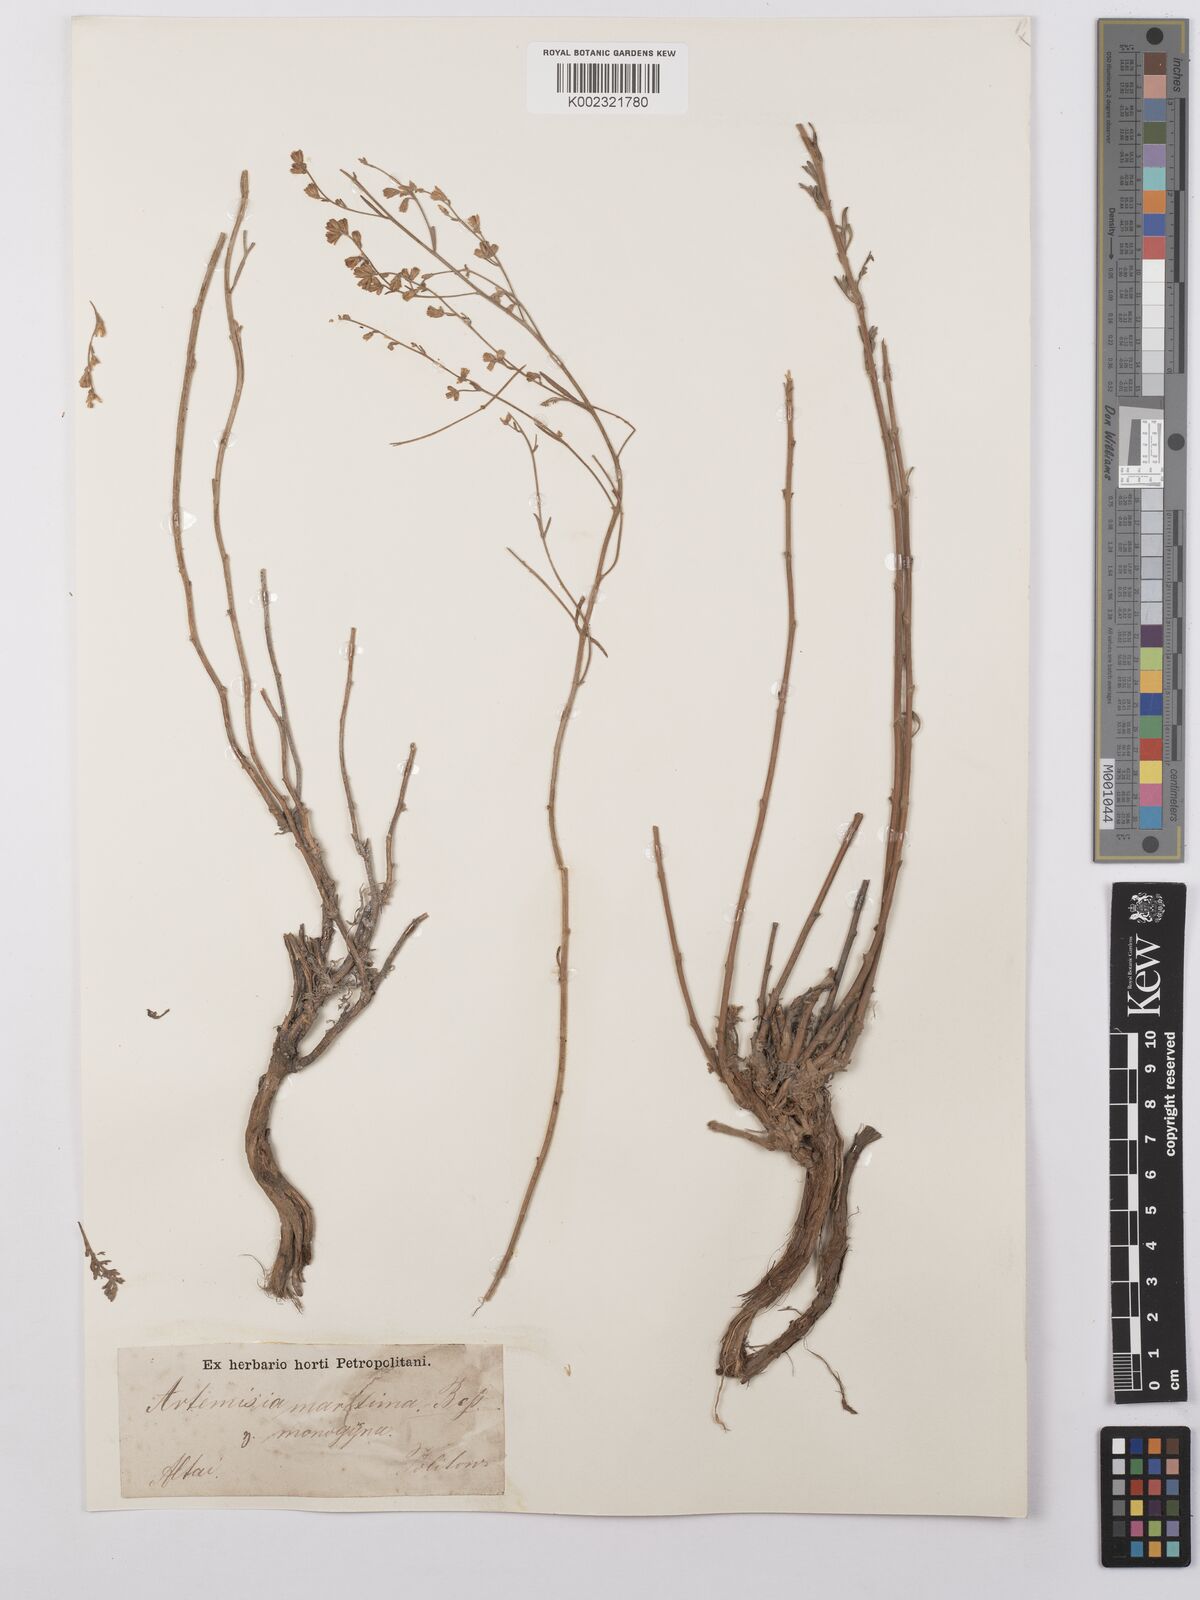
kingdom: Plantae
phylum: Tracheophyta
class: Magnoliopsida
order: Asterales
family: Asteraceae
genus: Artemisia
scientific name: Artemisia santonicum
